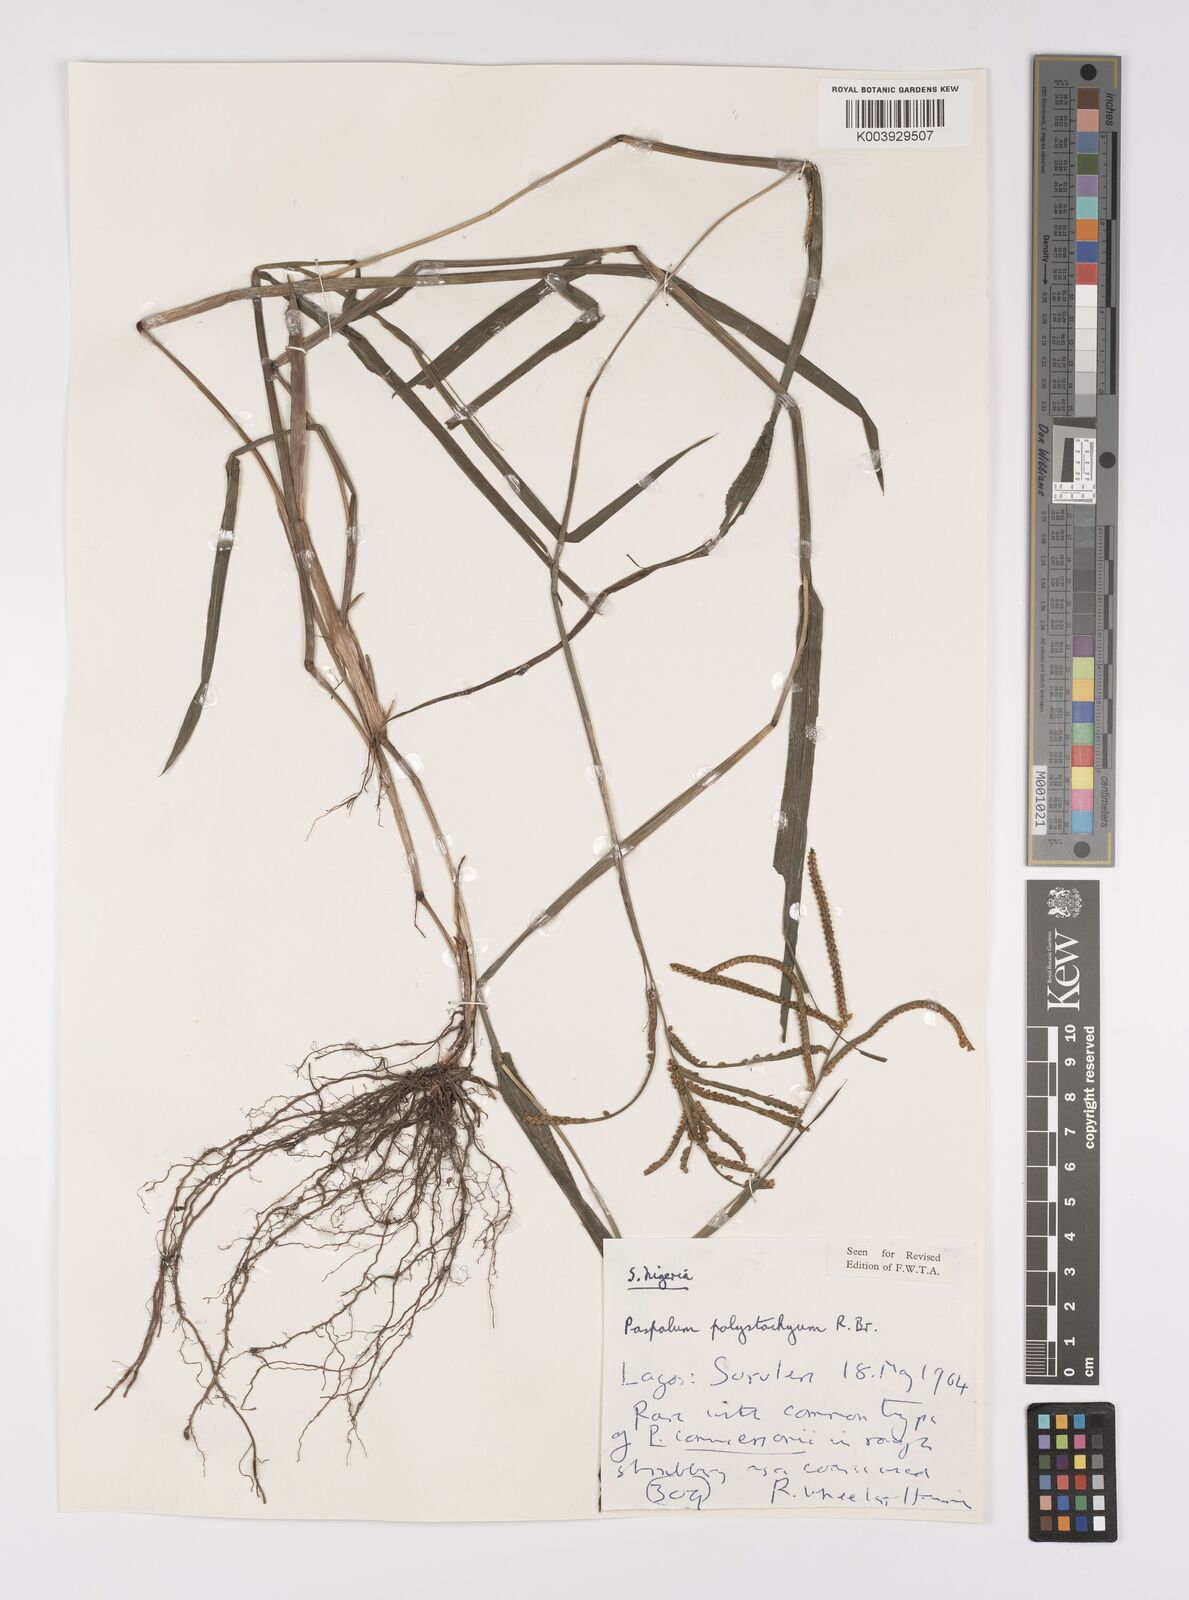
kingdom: Plantae
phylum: Tracheophyta
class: Liliopsida
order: Poales
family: Poaceae
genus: Paspalum
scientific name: Paspalum scrobiculatum
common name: Kodo millet
